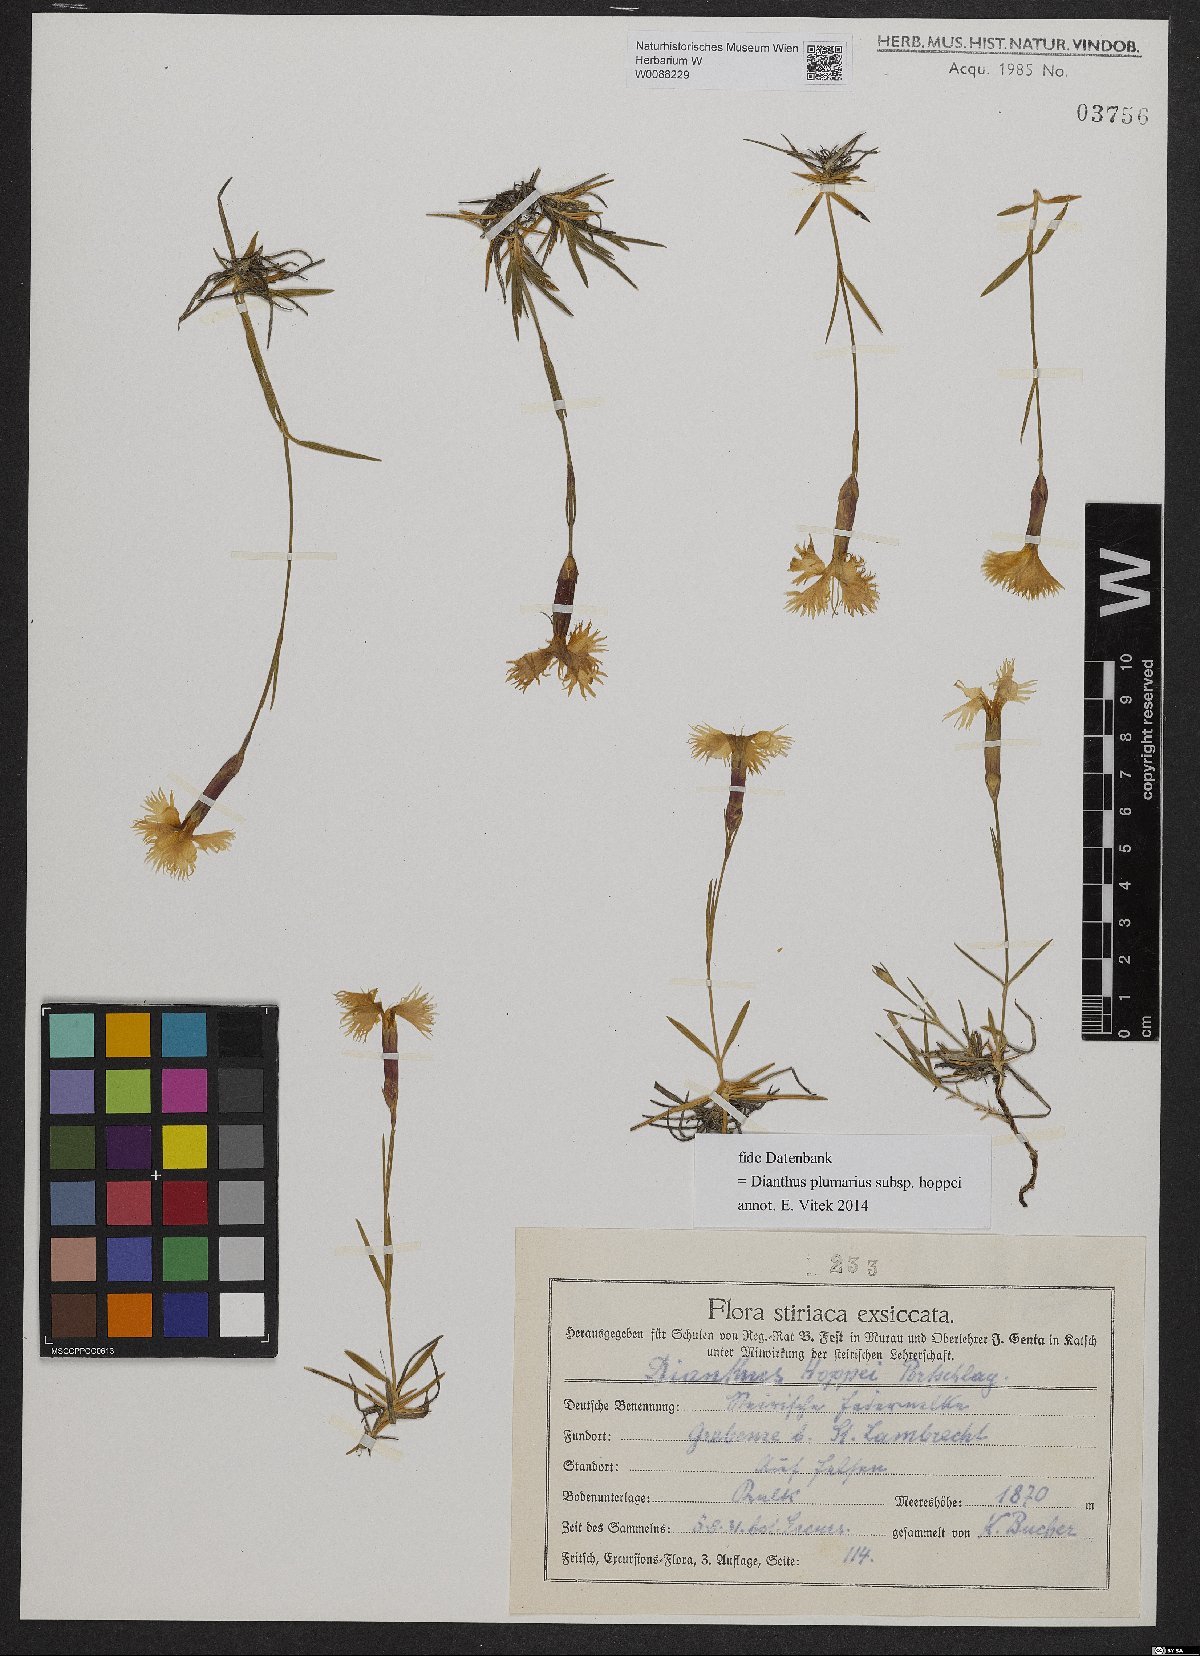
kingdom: Plantae
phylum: Tracheophyta
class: Magnoliopsida
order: Caryophyllales
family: Caryophyllaceae
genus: Dianthus
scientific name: Dianthus plumarius
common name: Pink
